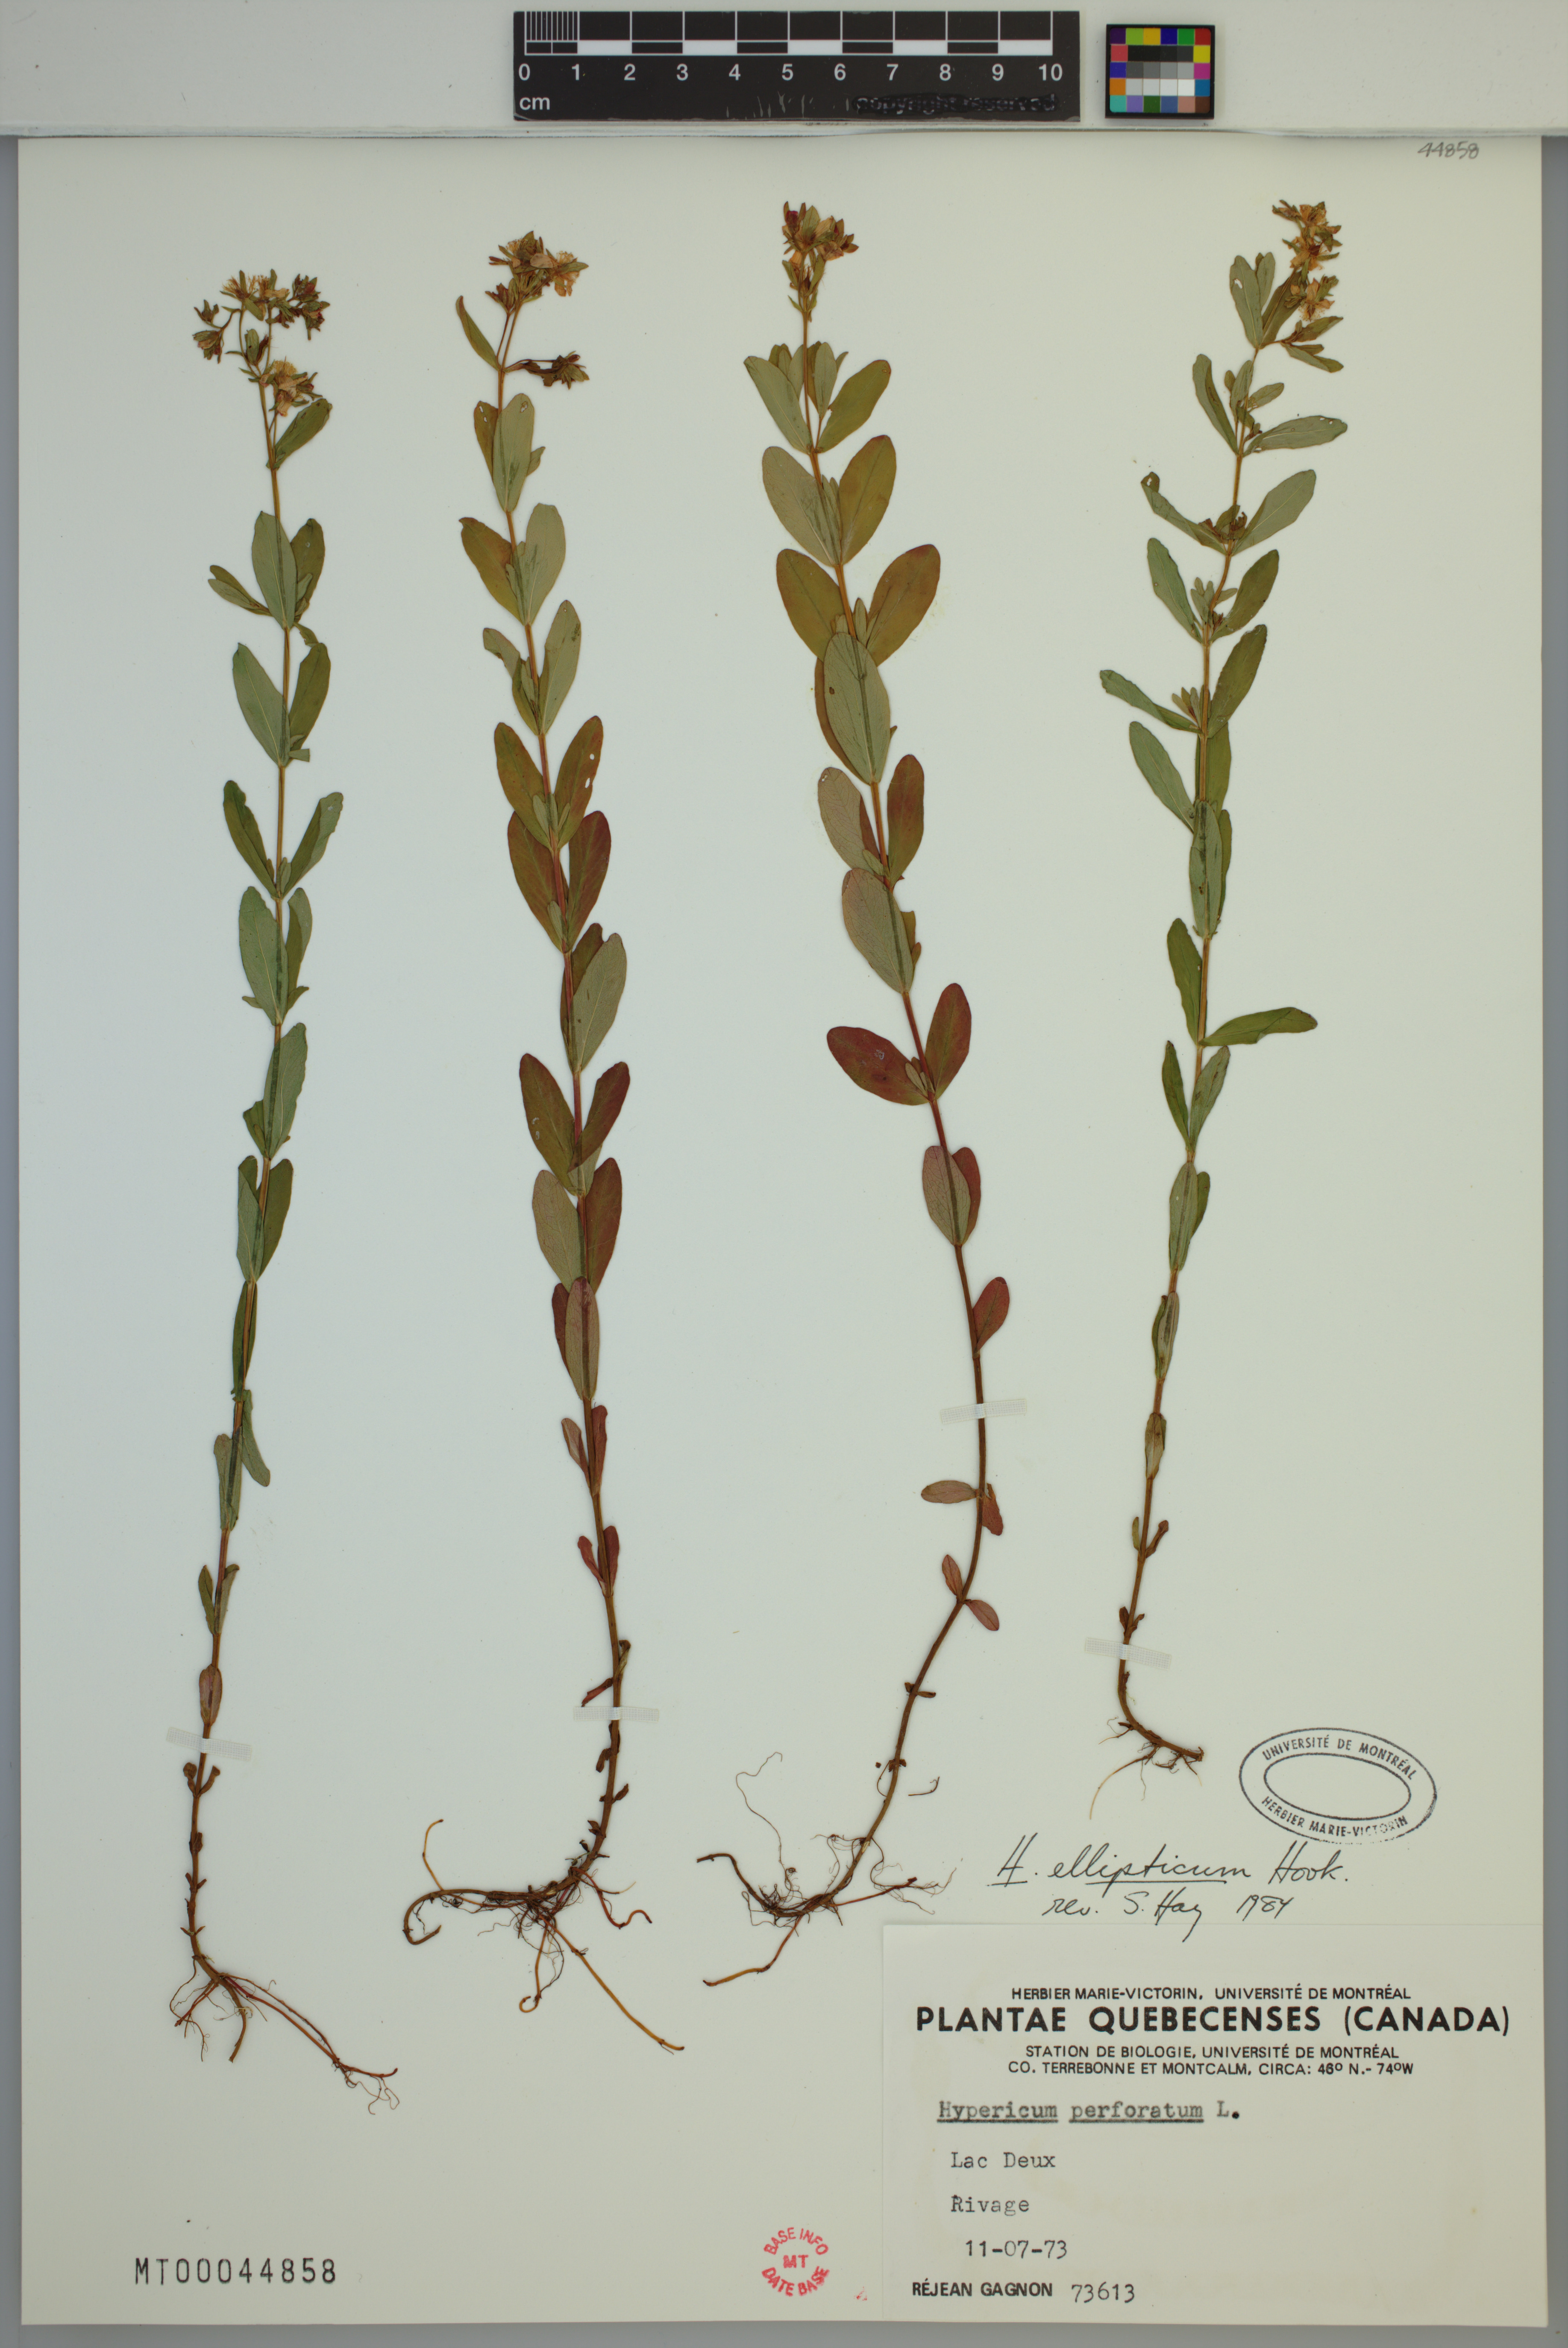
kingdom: Plantae
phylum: Tracheophyta
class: Magnoliopsida
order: Malpighiales
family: Hypericaceae
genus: Hypericum
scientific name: Hypericum ellipticum
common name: Elliptic st. john's-wort
